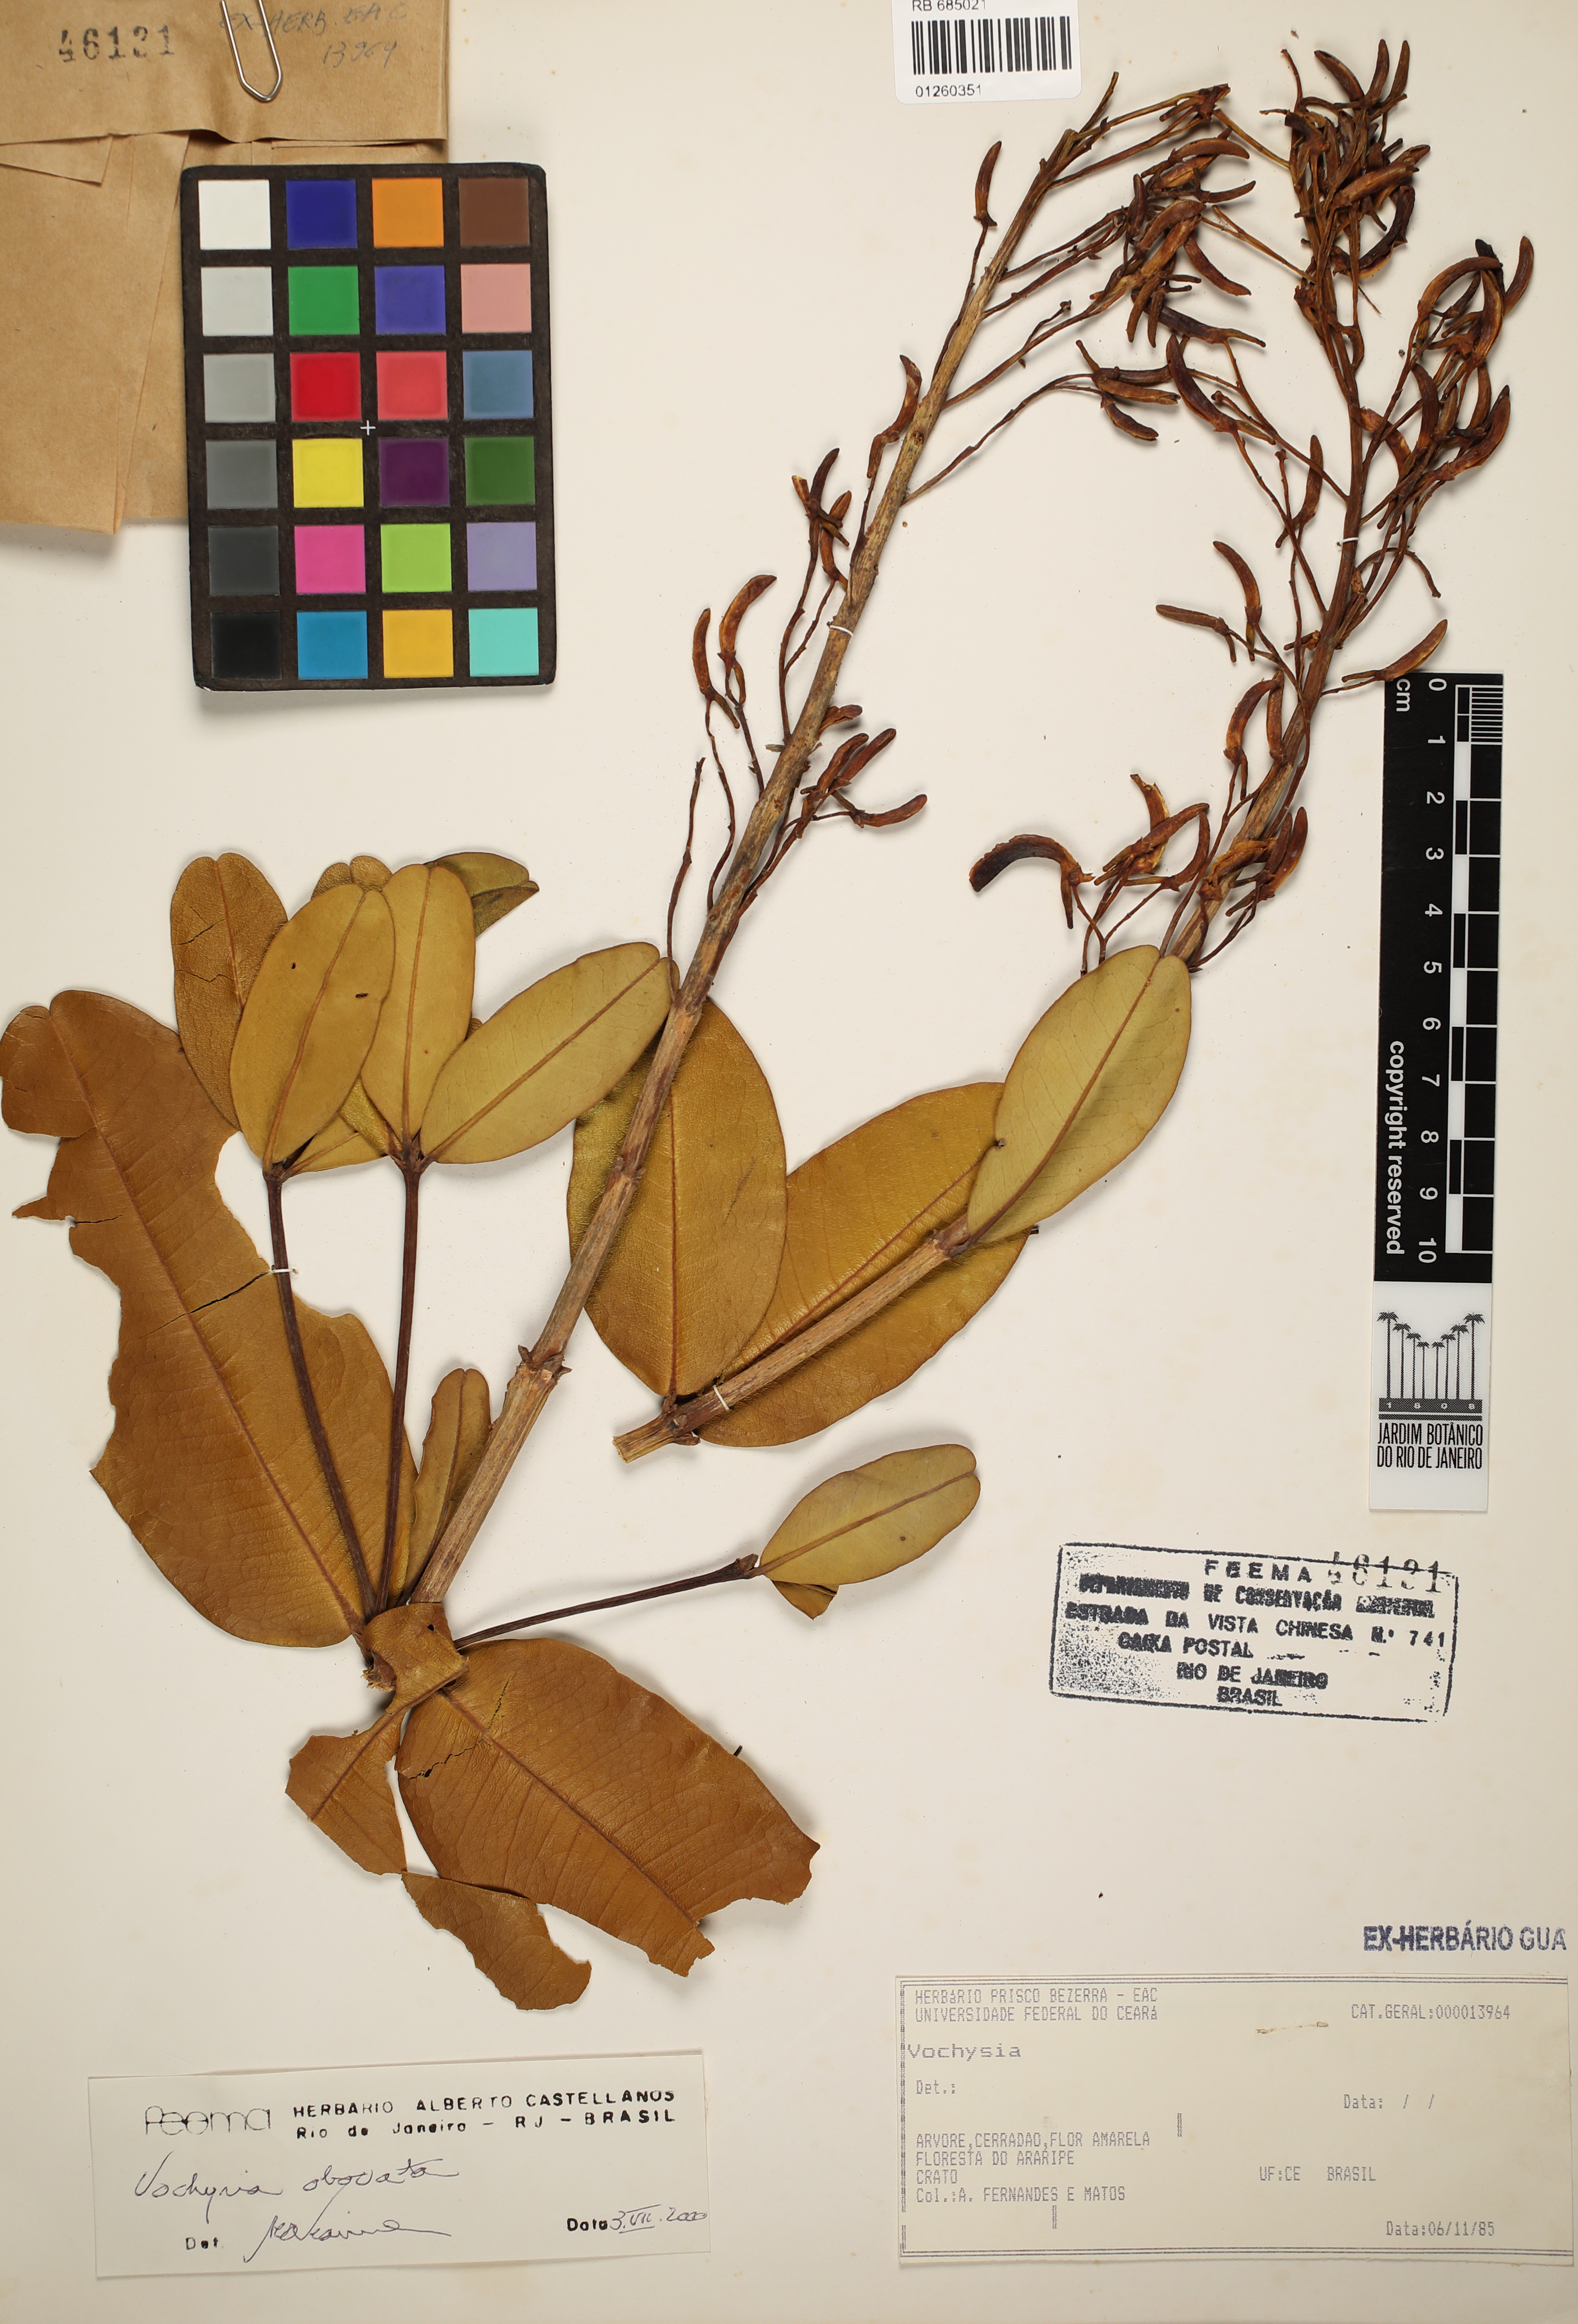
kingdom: Plantae
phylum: Tracheophyta
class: Magnoliopsida
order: Myrtales
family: Vochysiaceae
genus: Vochysia
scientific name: Vochysia obovata
